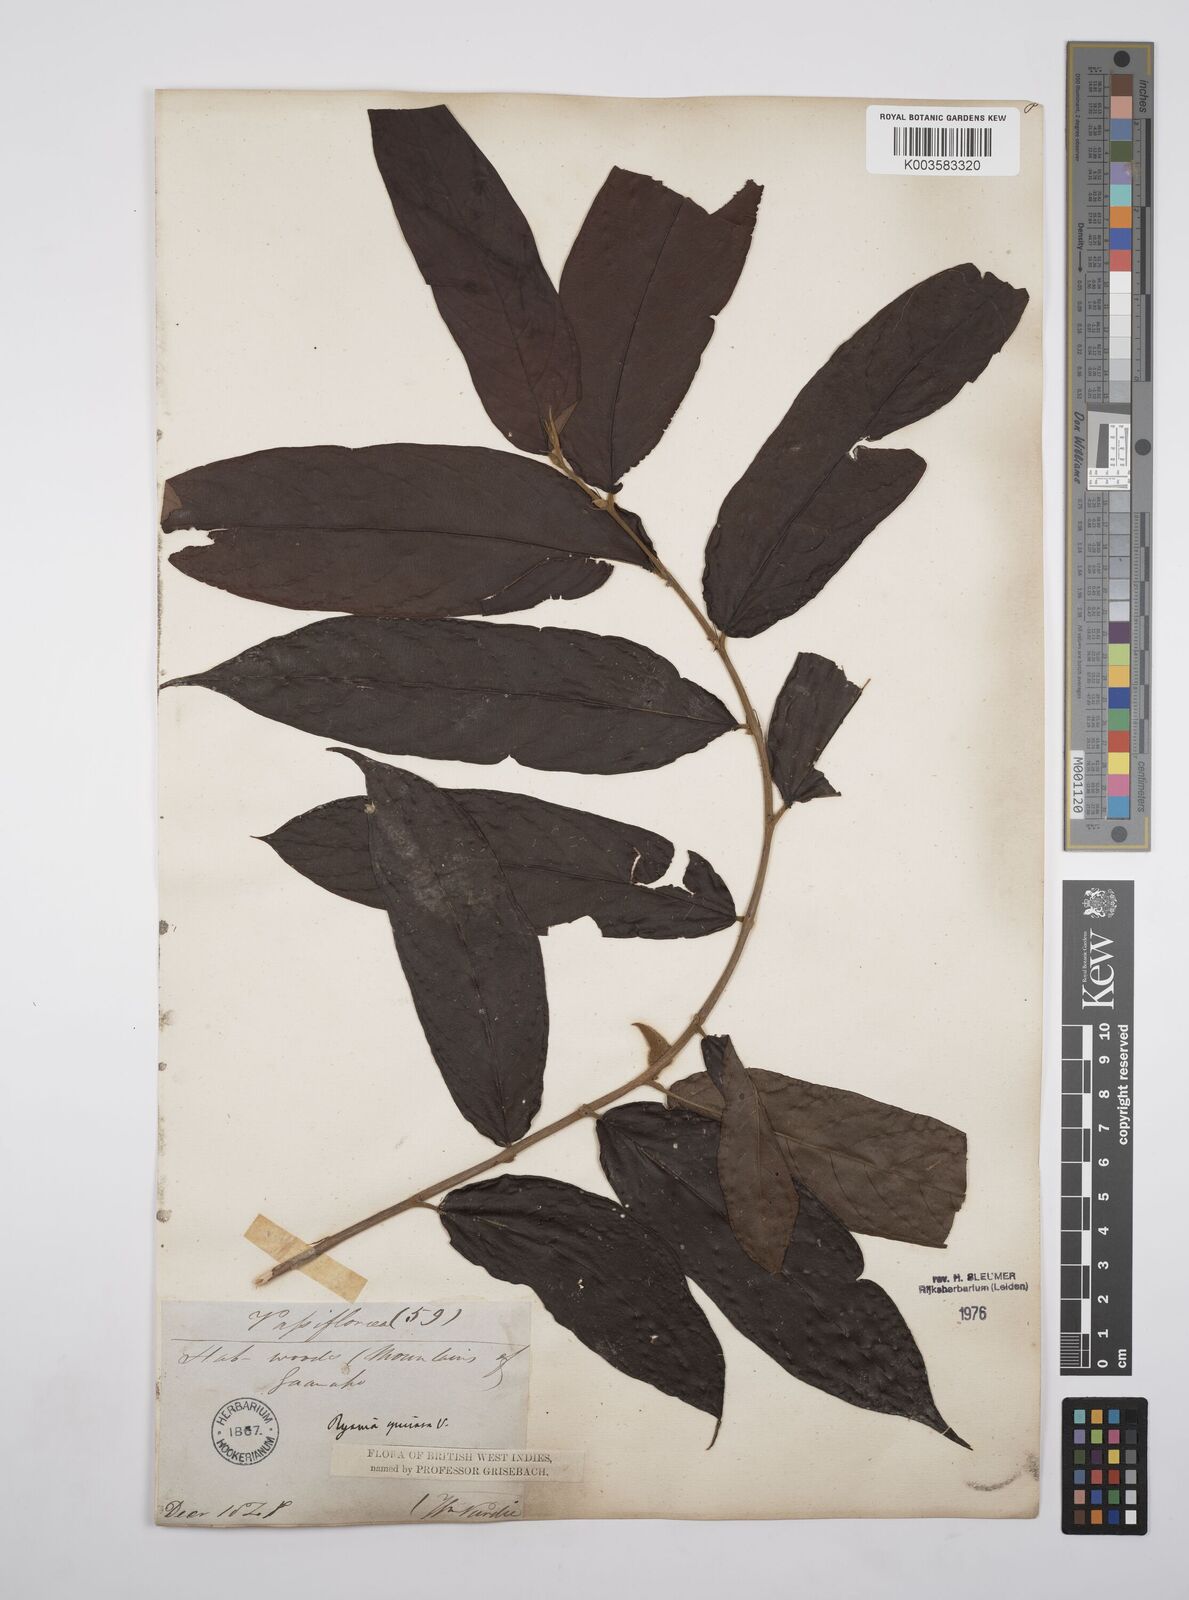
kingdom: Plantae
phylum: Tracheophyta
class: Magnoliopsida
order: Malpighiales
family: Salicaceae
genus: Ryania
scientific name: Ryania speciosa
